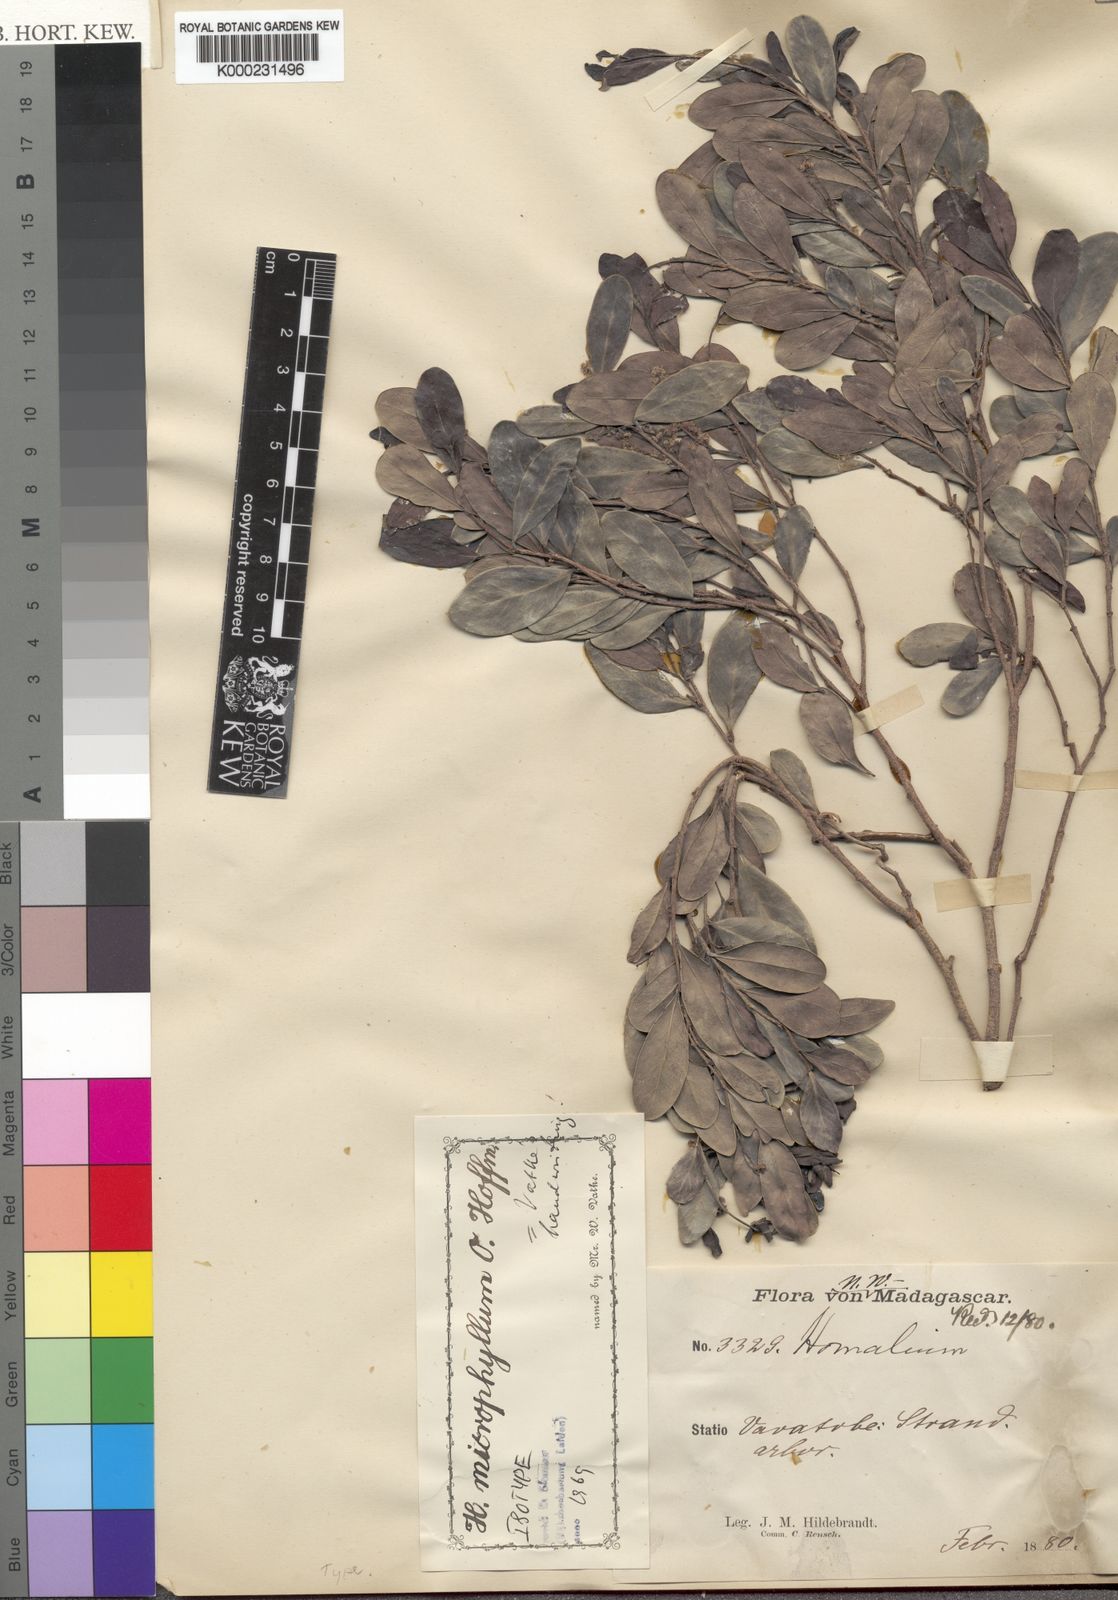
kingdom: Plantae
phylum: Tracheophyta
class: Magnoliopsida
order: Malpighiales
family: Salicaceae
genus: Homalium
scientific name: Homalium microphyllum
